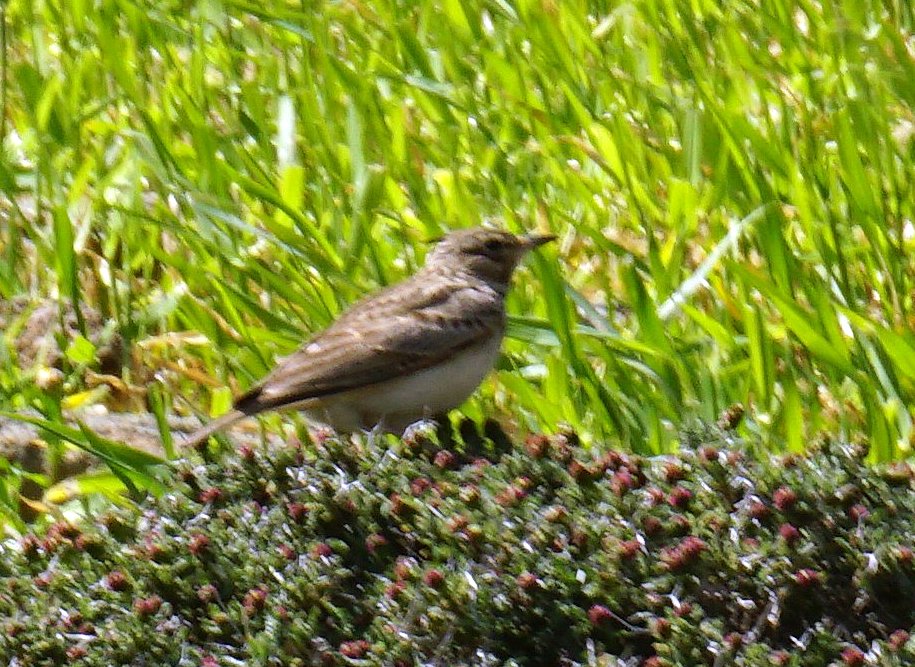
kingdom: Animalia
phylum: Chordata
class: Aves
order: Passeriformes
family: Alaudidae
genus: Galerida
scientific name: Galerida cristata
